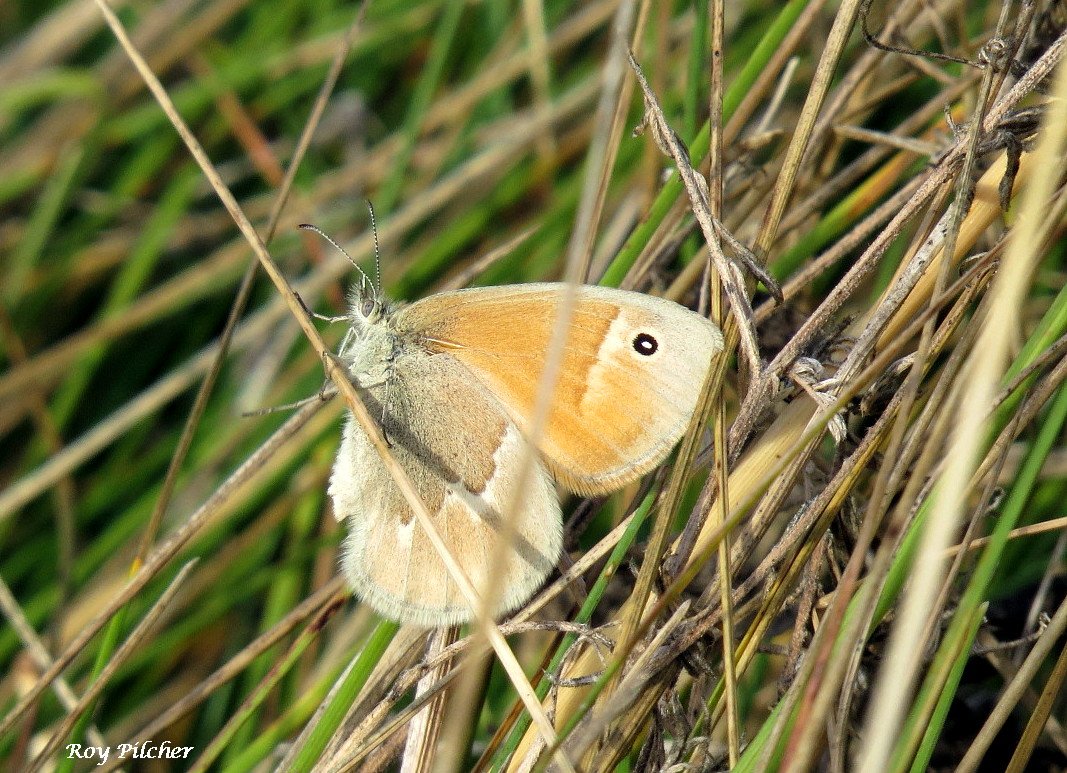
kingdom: Animalia
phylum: Arthropoda
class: Insecta
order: Lepidoptera
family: Nymphalidae
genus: Coenonympha
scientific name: Coenonympha tullia
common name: Large Heath
